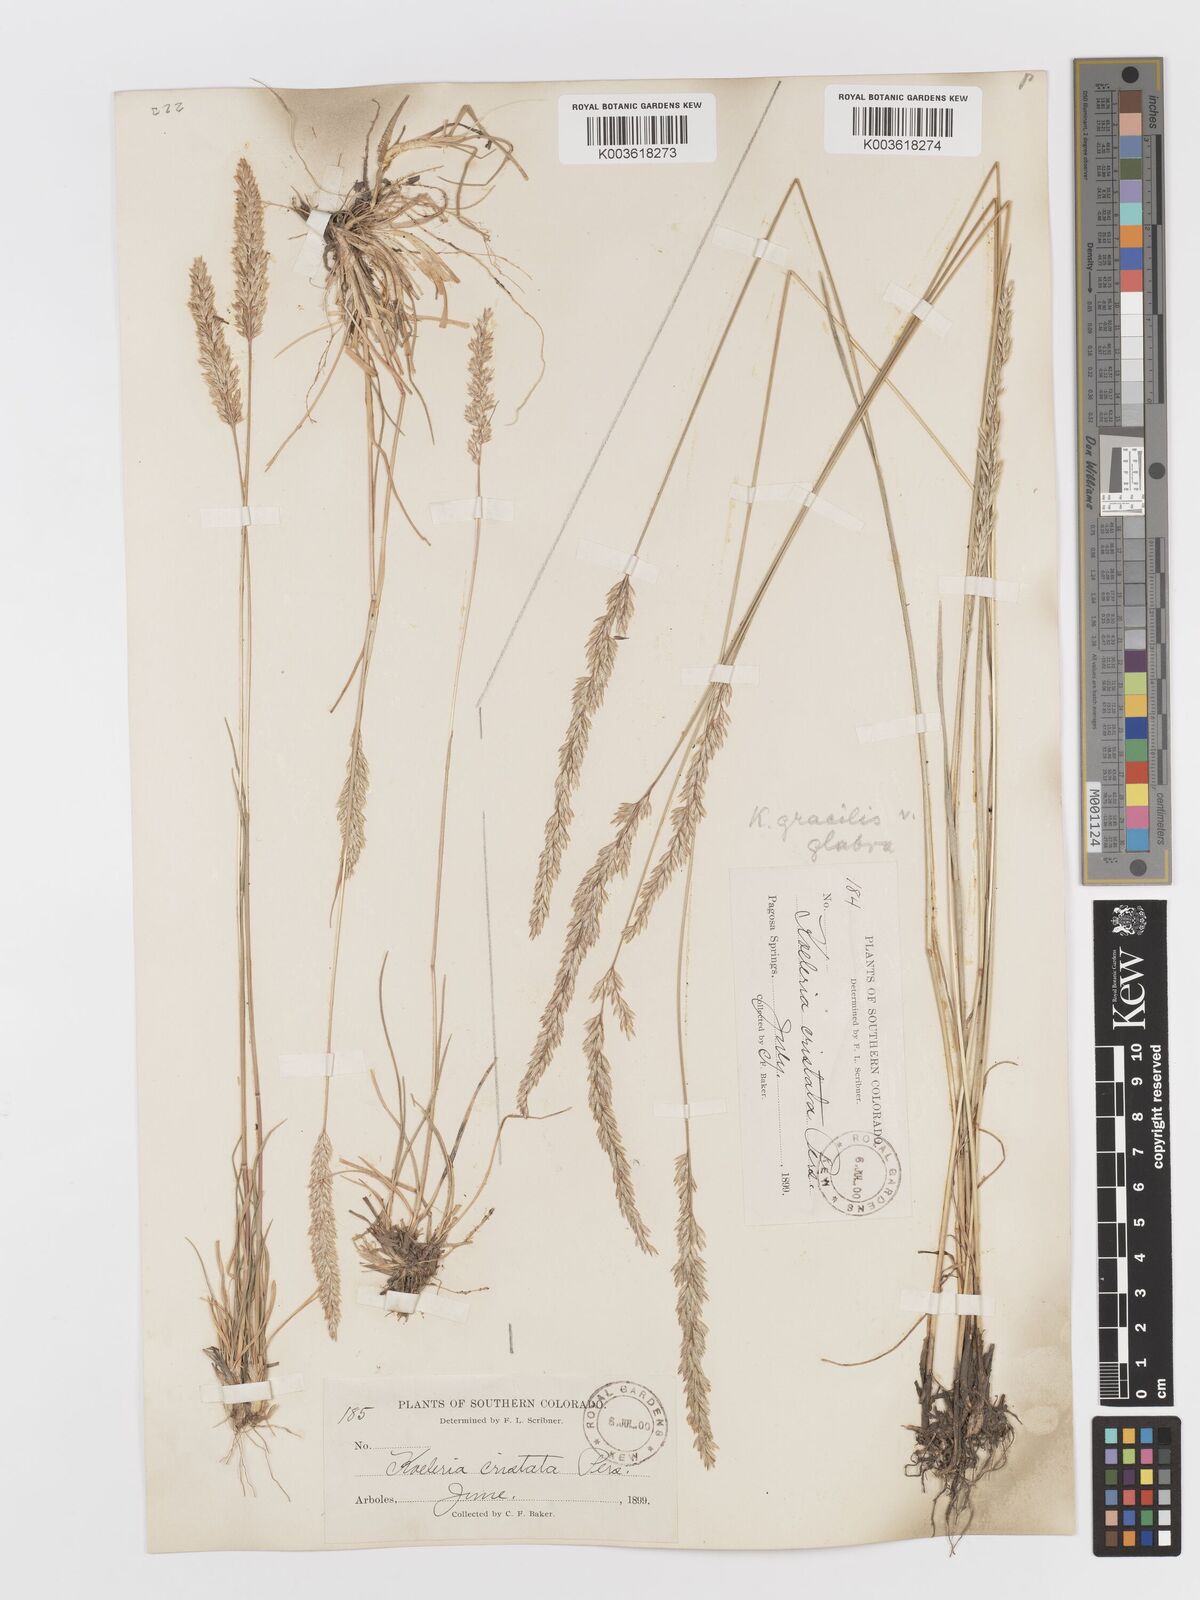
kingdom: Plantae
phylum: Tracheophyta
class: Liliopsida
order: Poales
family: Poaceae
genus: Koeleria
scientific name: Koeleria macrantha
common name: Crested hair-grass
